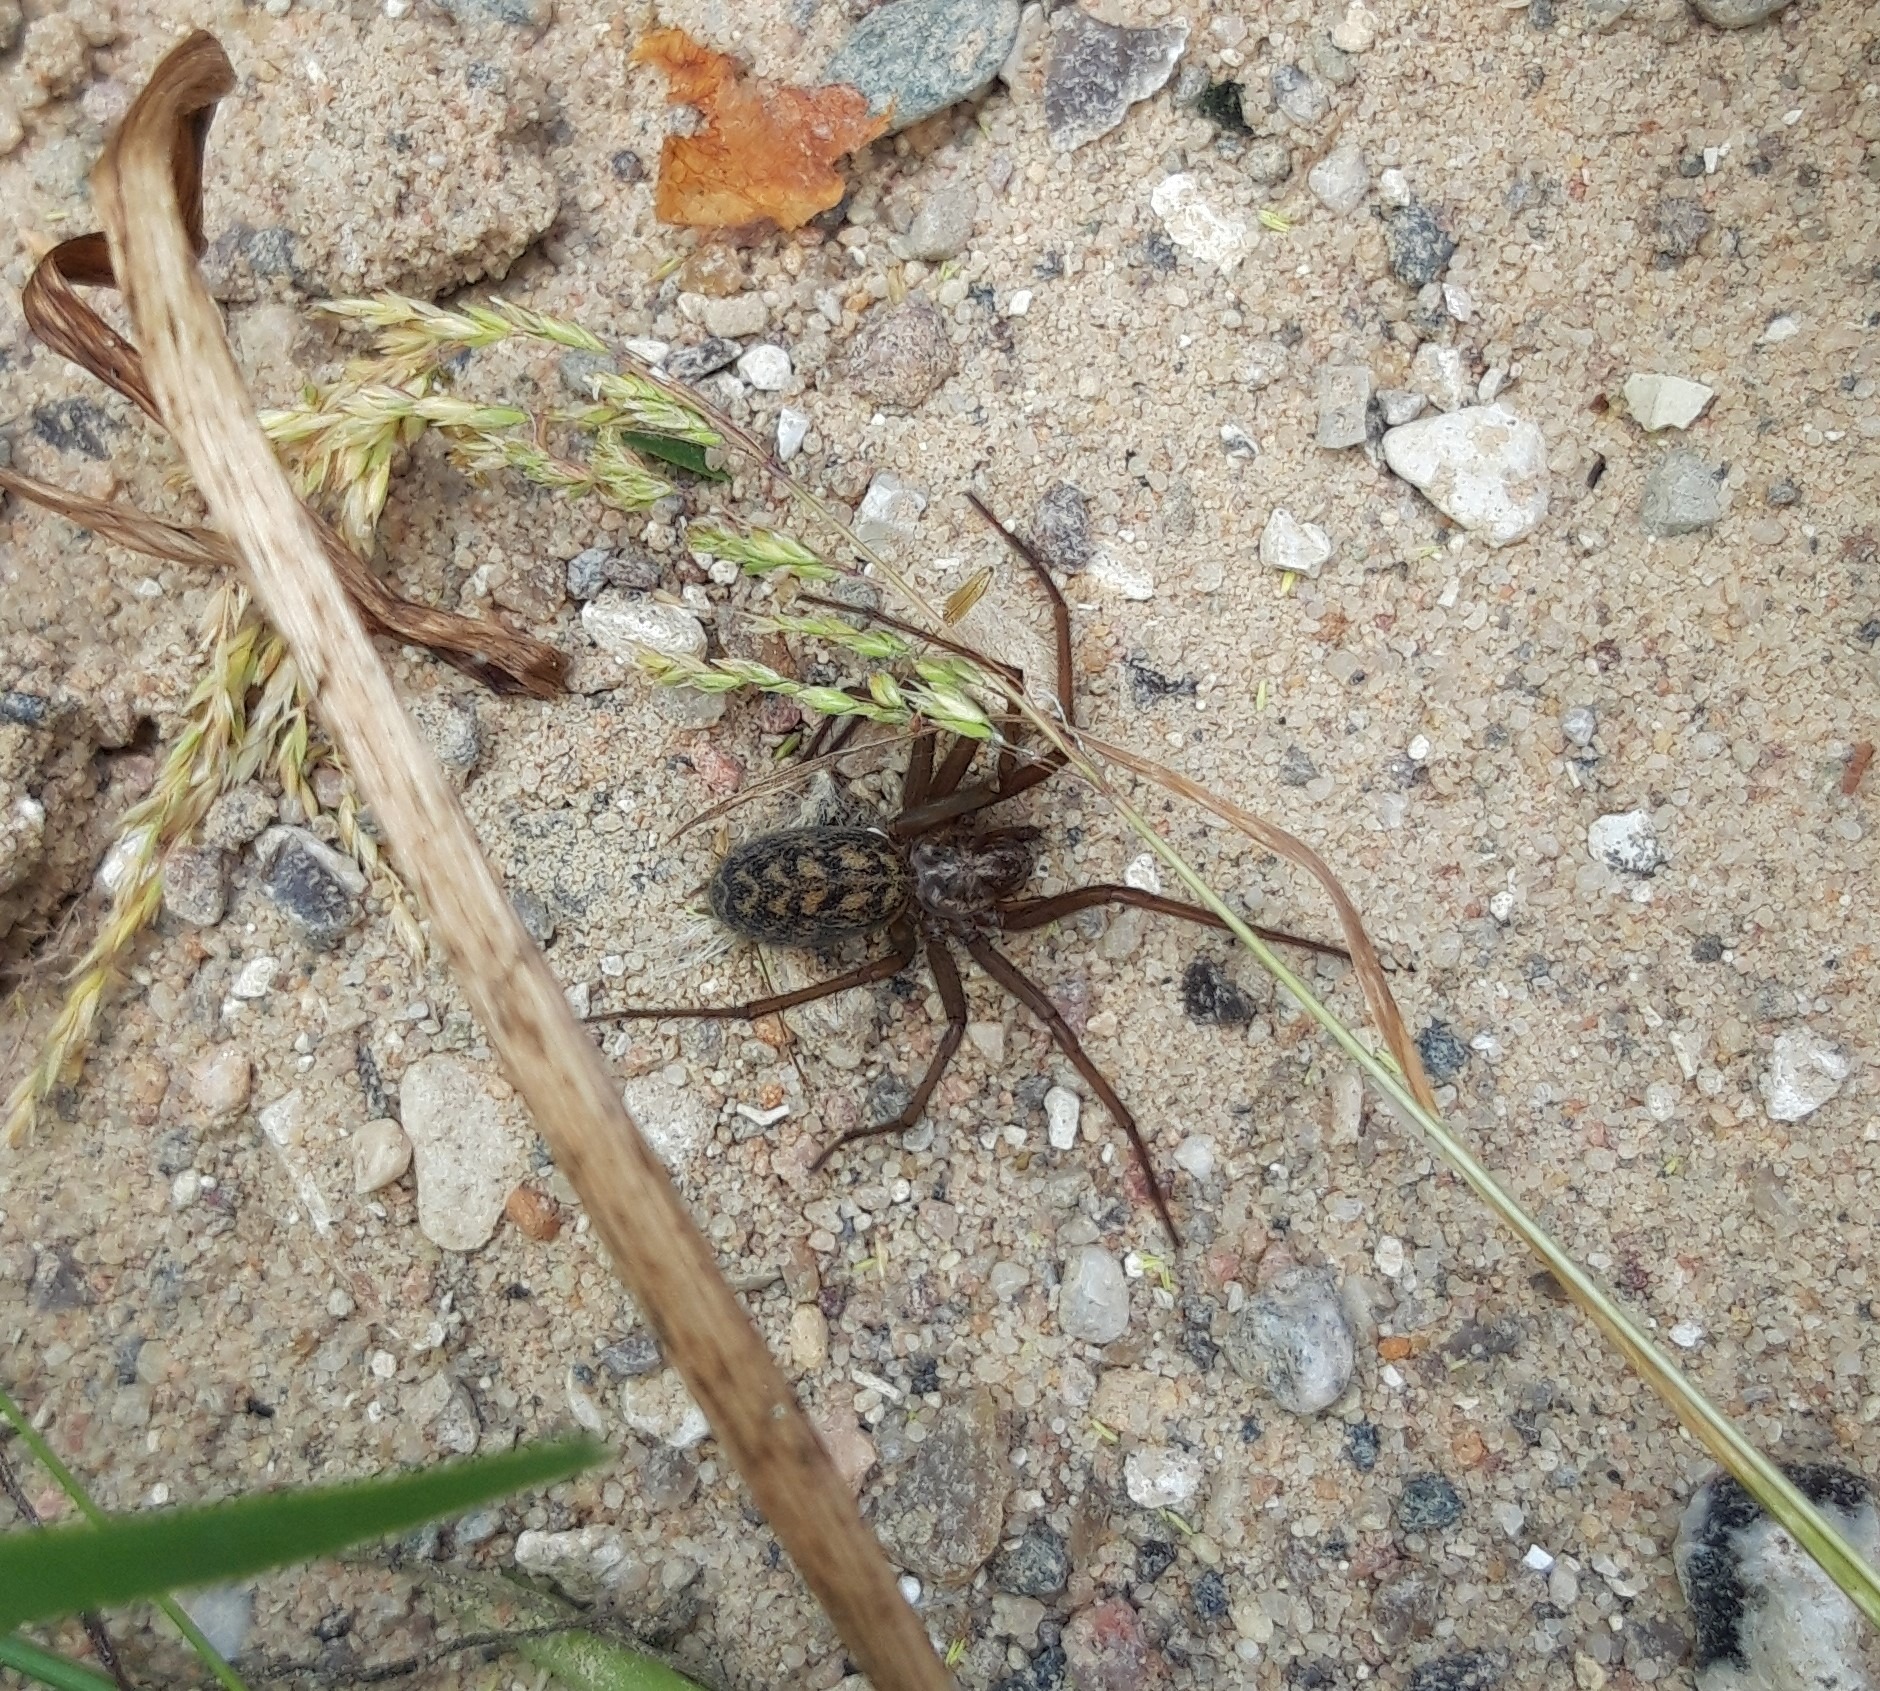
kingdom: Animalia
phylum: Arthropoda
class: Arachnida
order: Araneae
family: Agelenidae
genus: Eratigena
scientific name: Eratigena atrica
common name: Stor husedderkop
